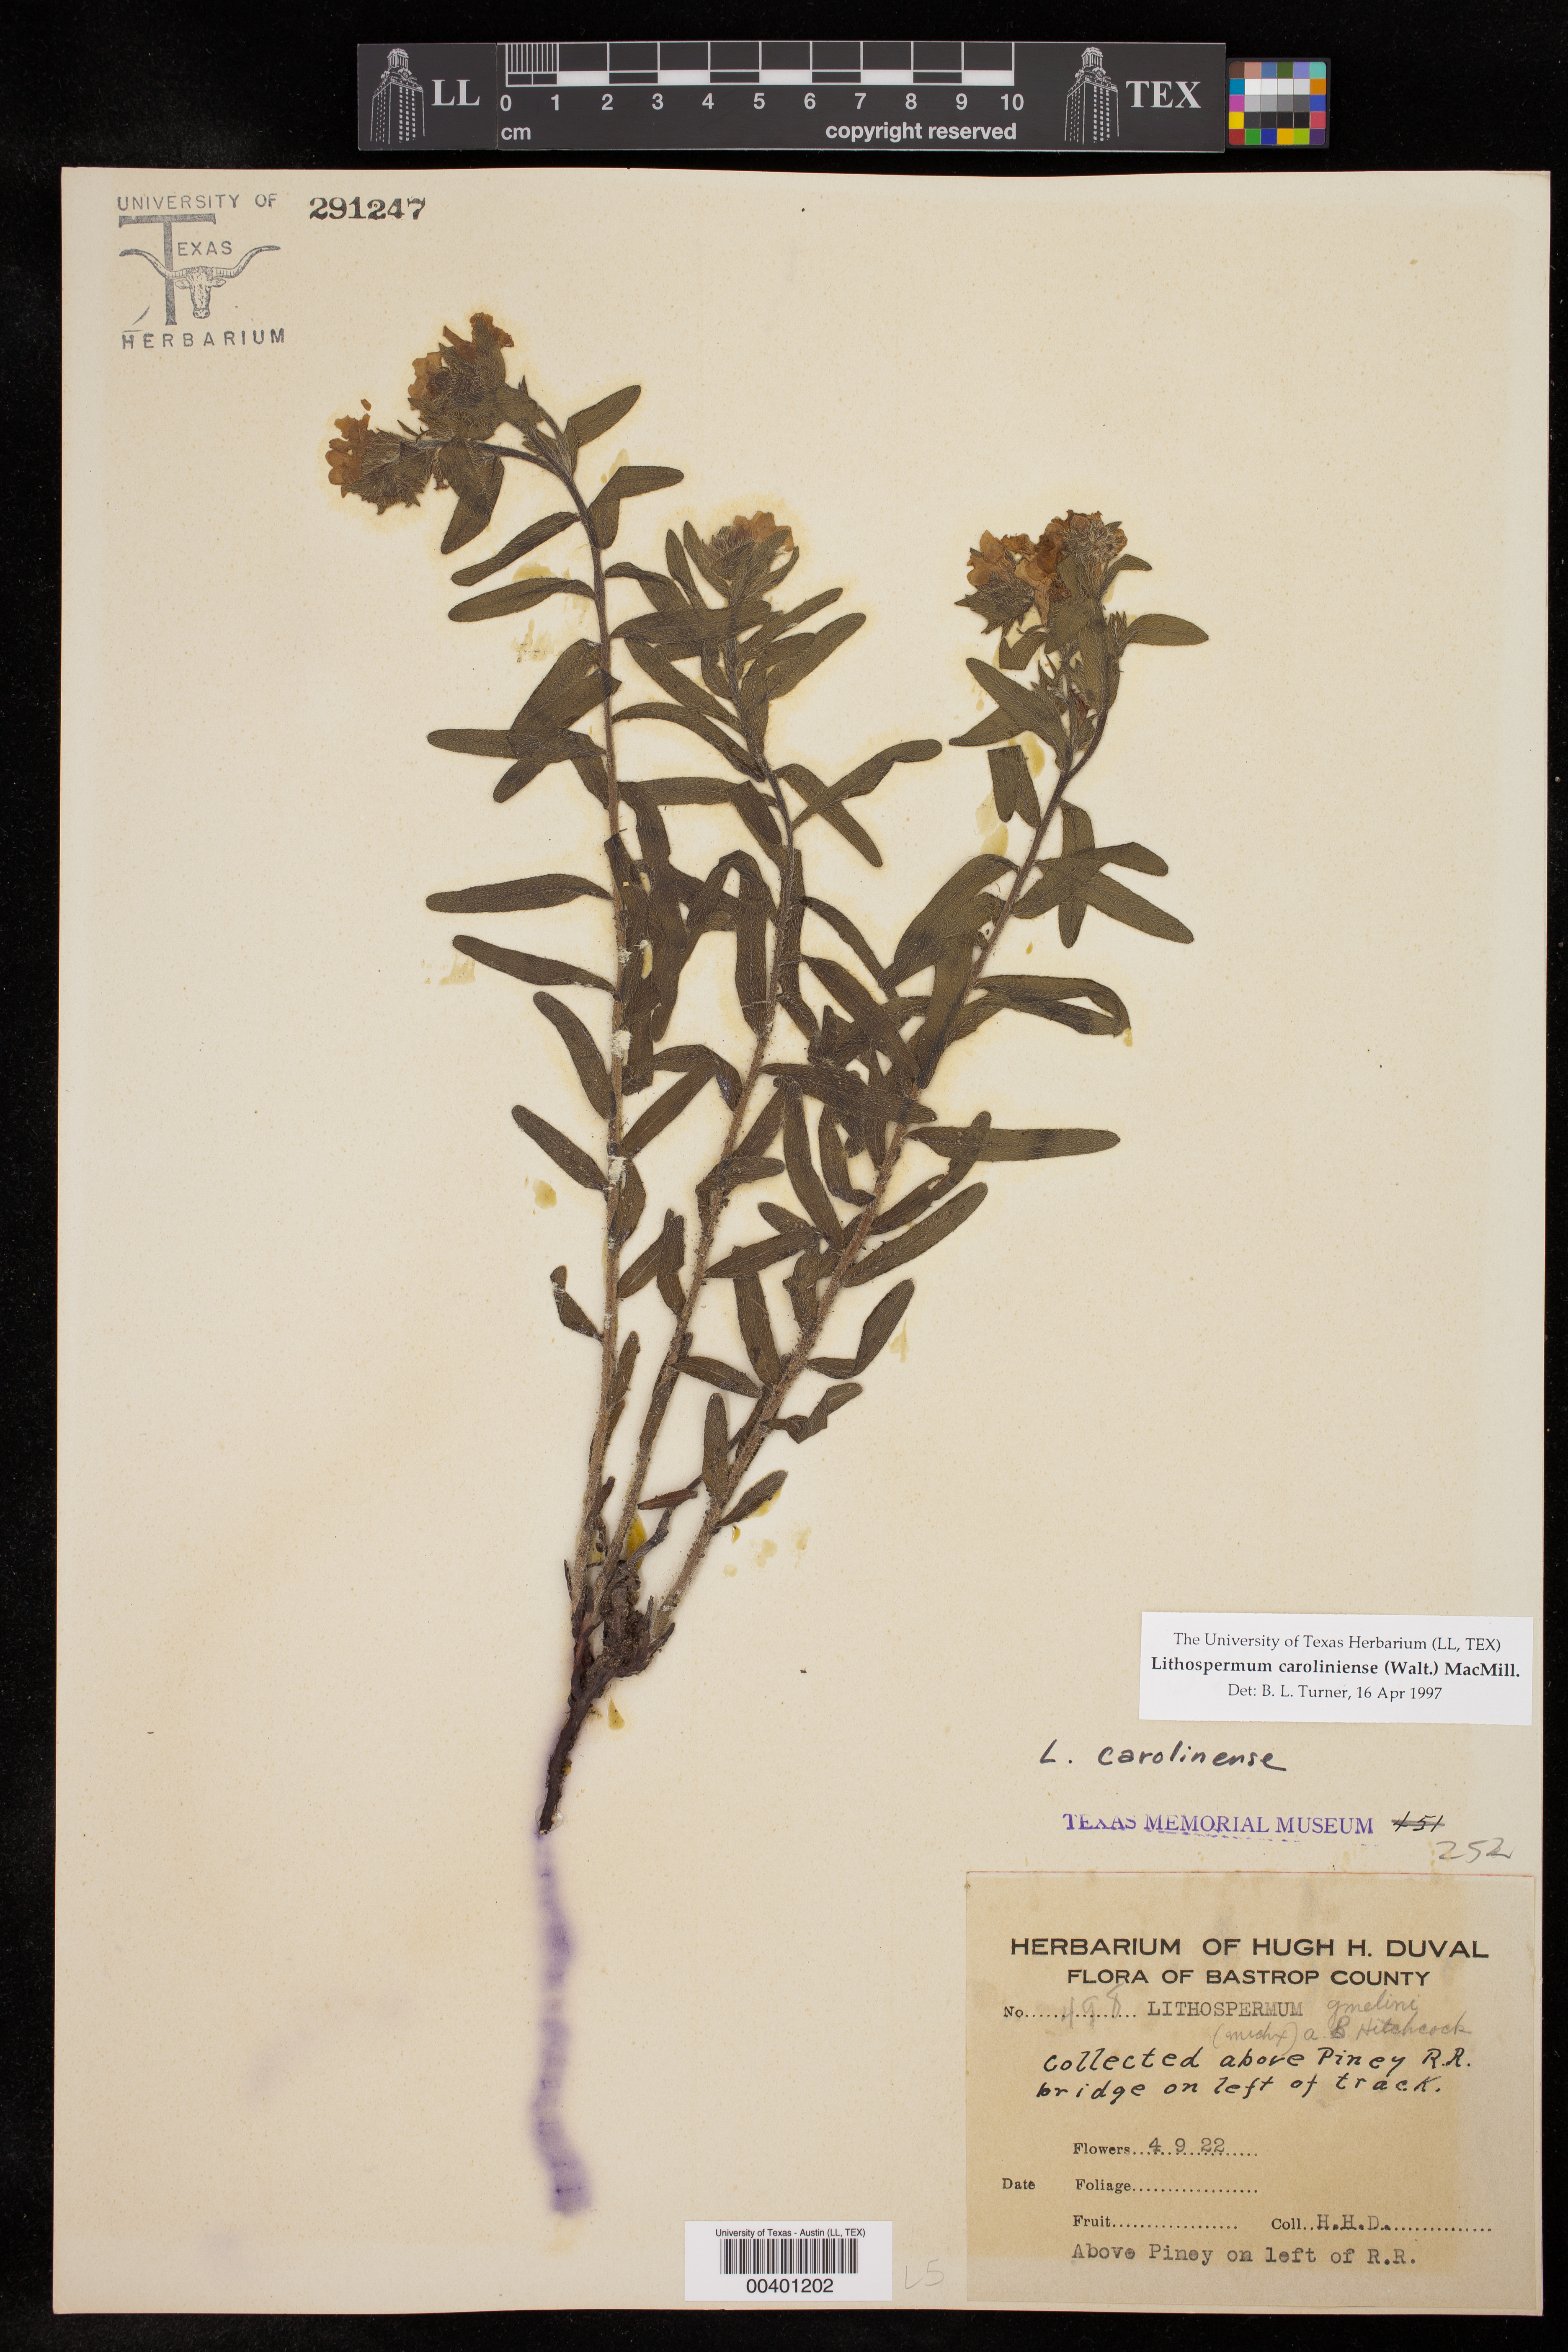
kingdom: Plantae
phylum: Tracheophyta
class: Magnoliopsida
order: Boraginales
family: Boraginaceae
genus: Lithospermum
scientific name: Lithospermum caroliniense
